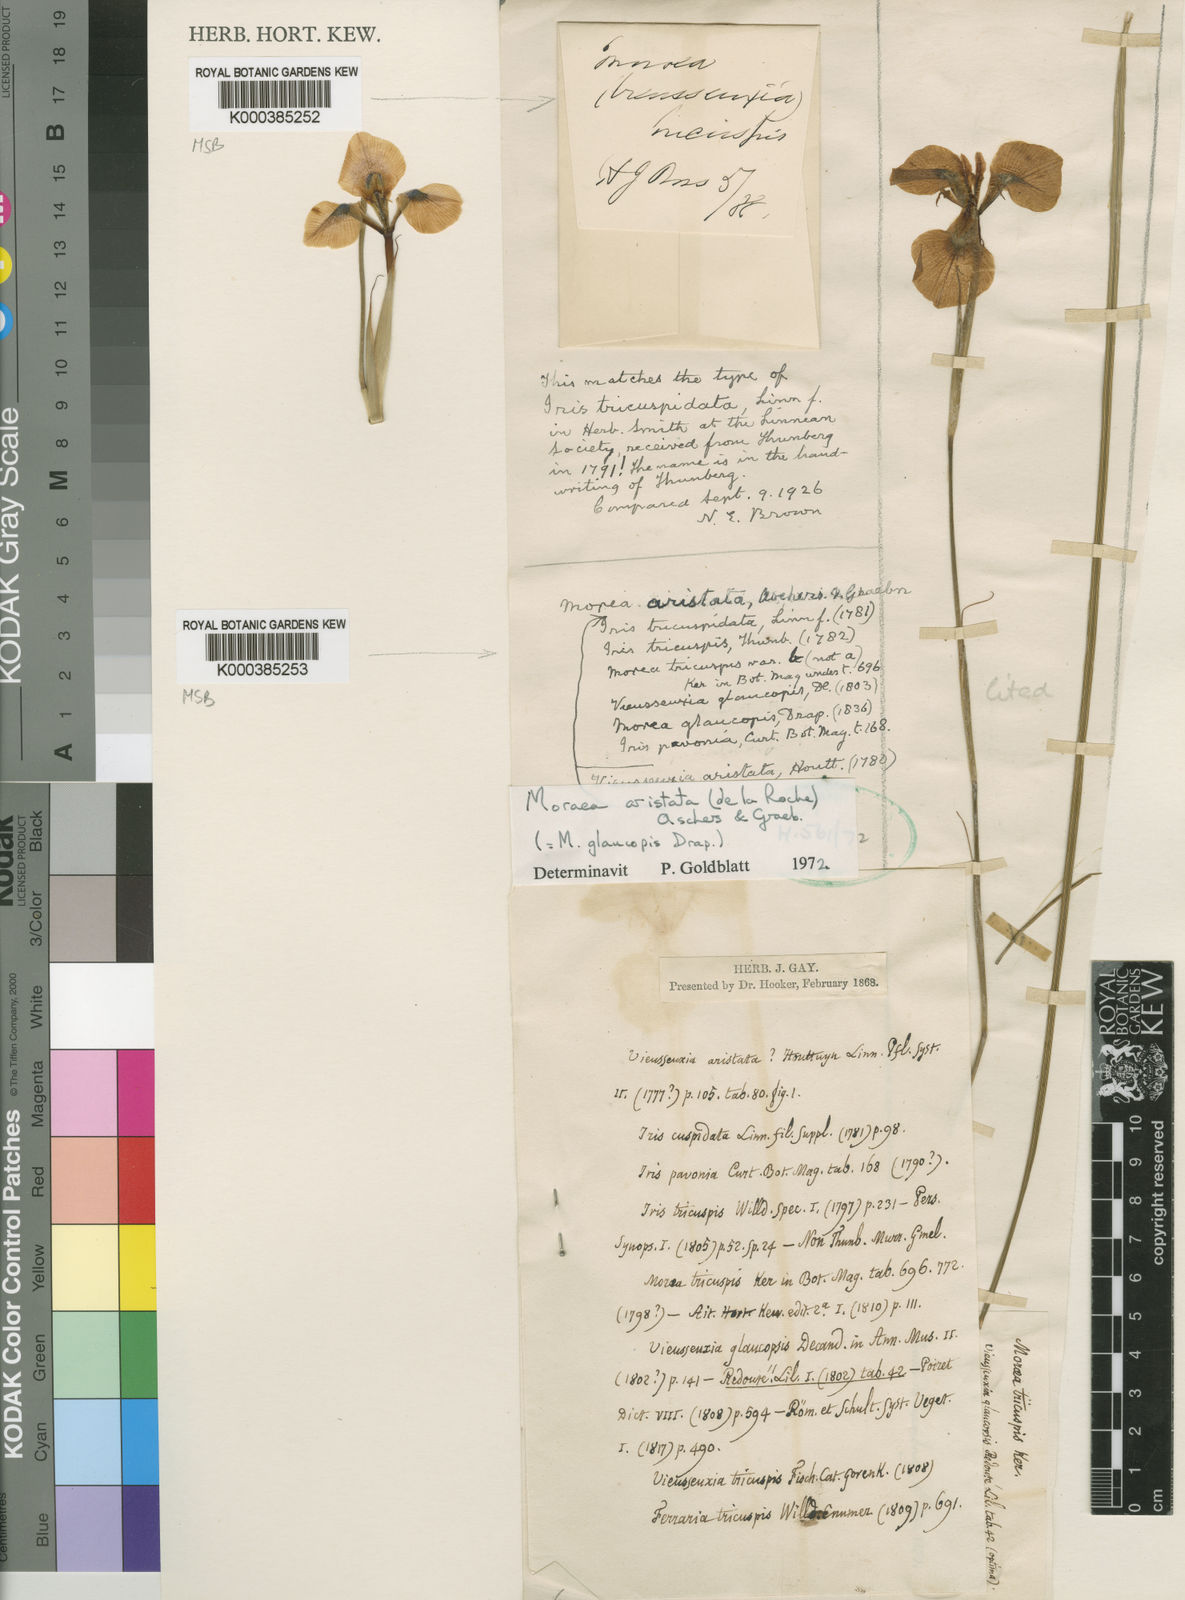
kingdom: Plantae
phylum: Tracheophyta
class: Liliopsida
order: Asparagales
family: Iridaceae
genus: Moraea
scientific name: Moraea aristata
